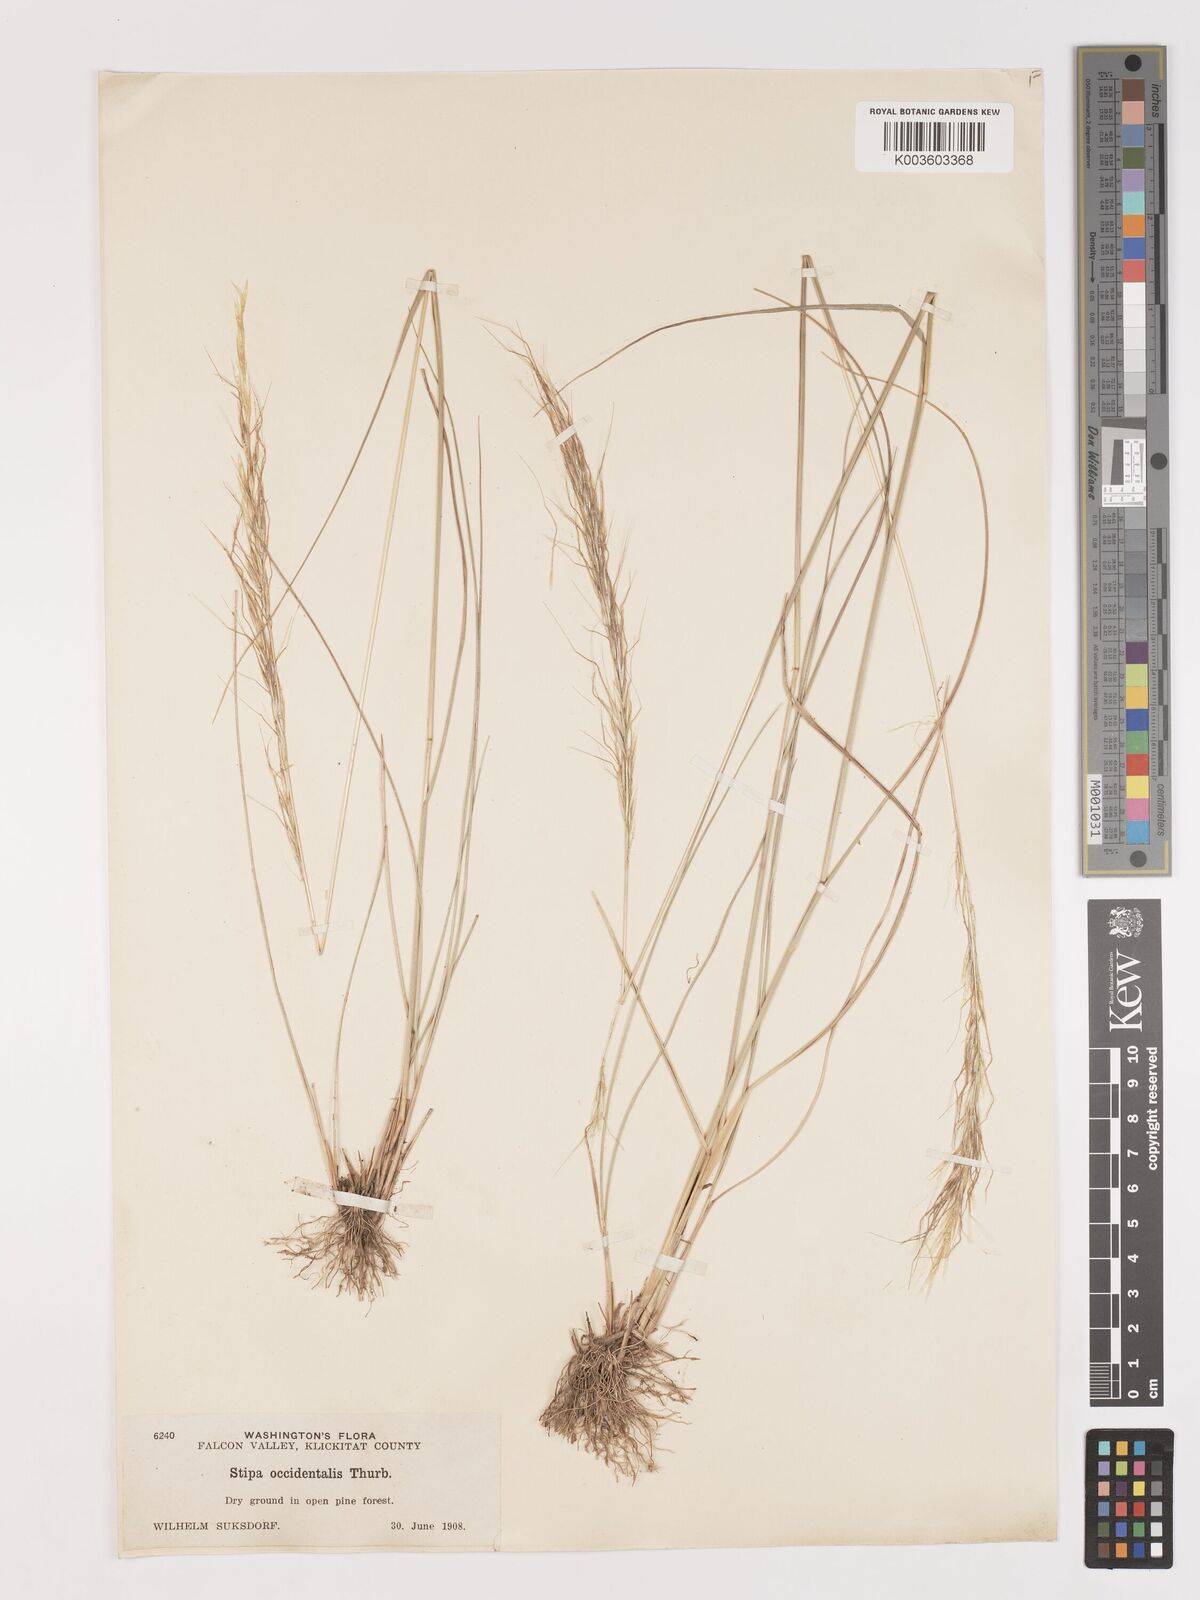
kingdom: Plantae
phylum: Tracheophyta
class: Liliopsida
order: Poales
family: Poaceae
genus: Eriocoma
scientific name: Eriocoma thurberiana
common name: Thurber's needlegrass
